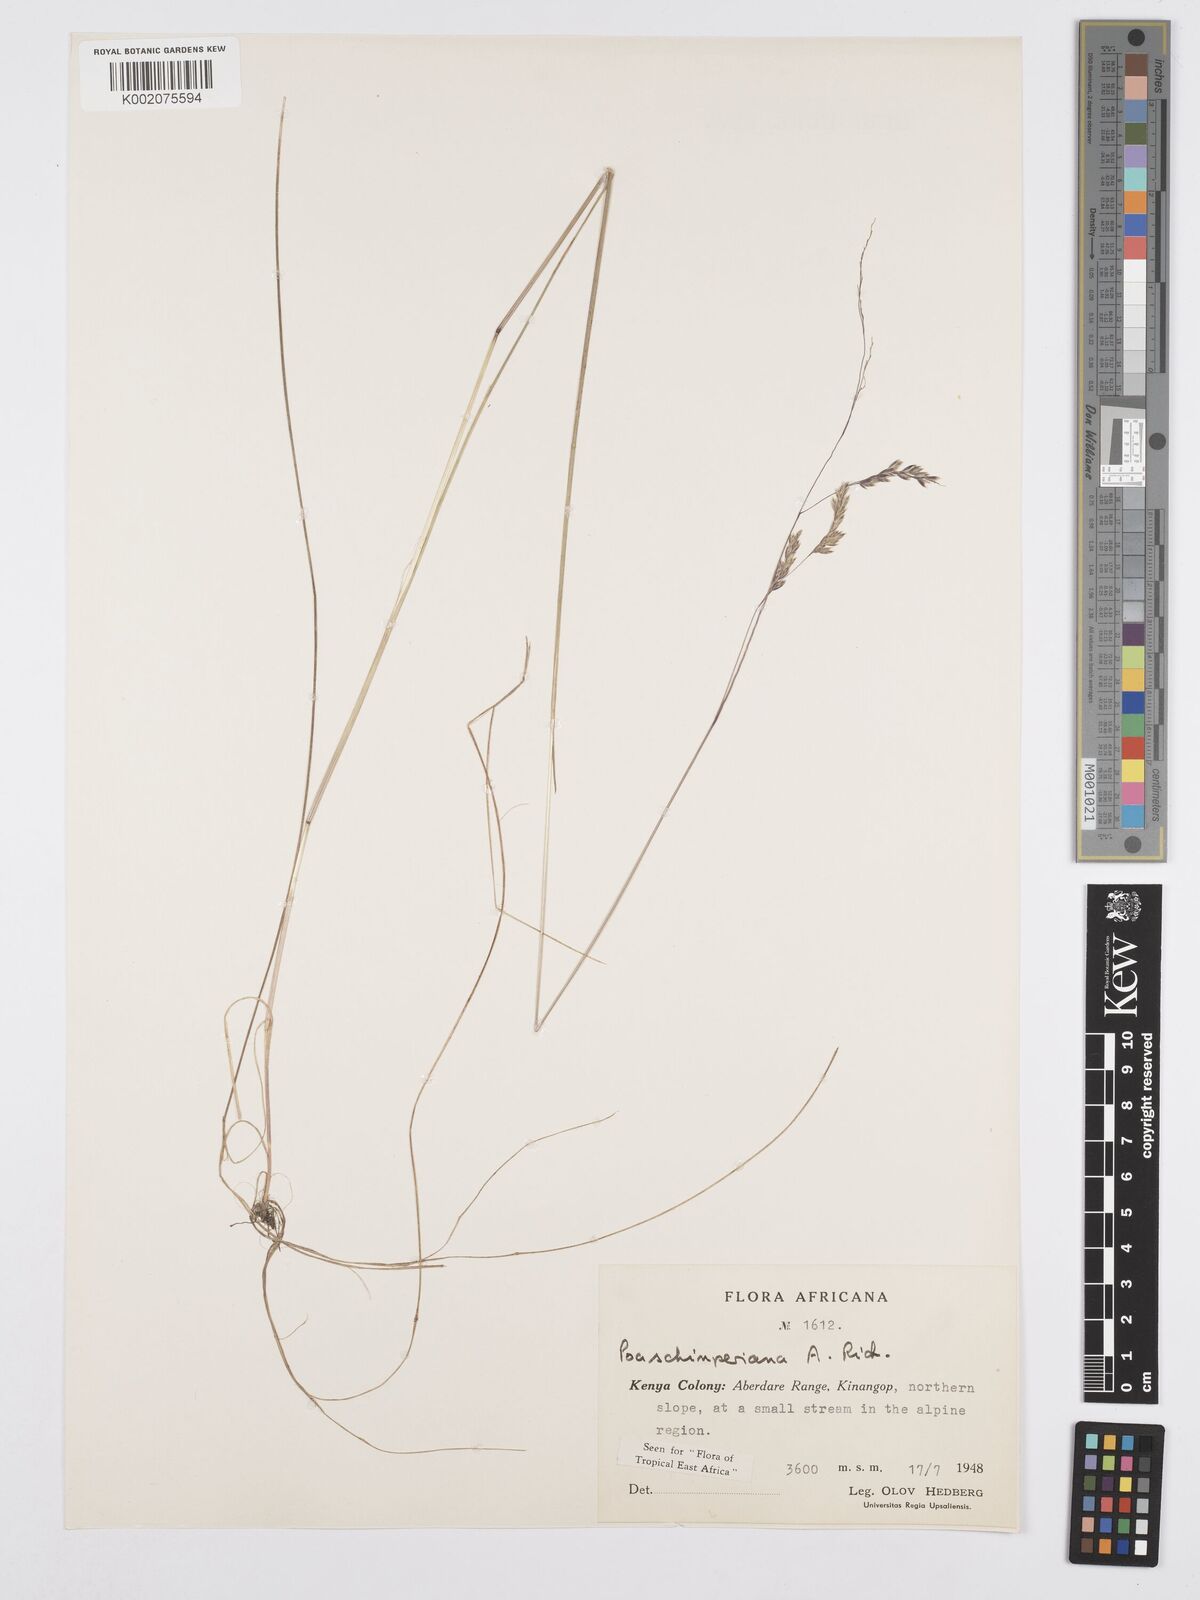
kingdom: Plantae
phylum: Tracheophyta
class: Liliopsida
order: Poales
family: Poaceae
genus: Poa
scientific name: Poa schimperiana
